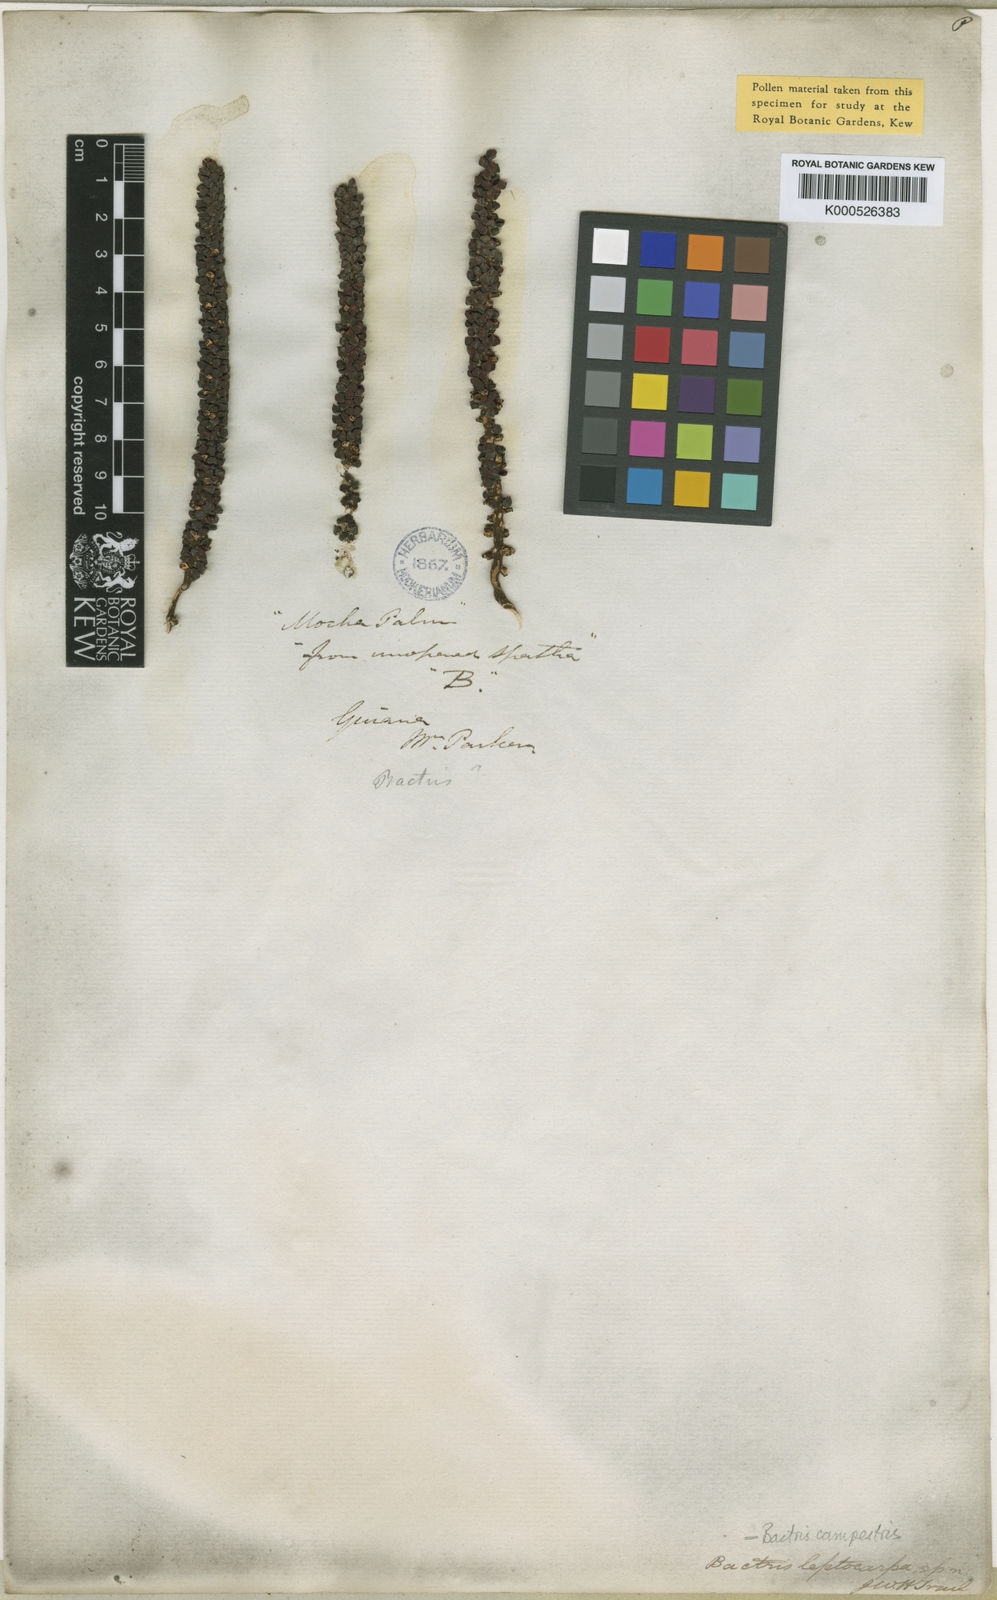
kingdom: Plantae
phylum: Tracheophyta
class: Liliopsida
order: Arecales
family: Arecaceae
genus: Bactris
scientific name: Bactris campestris
